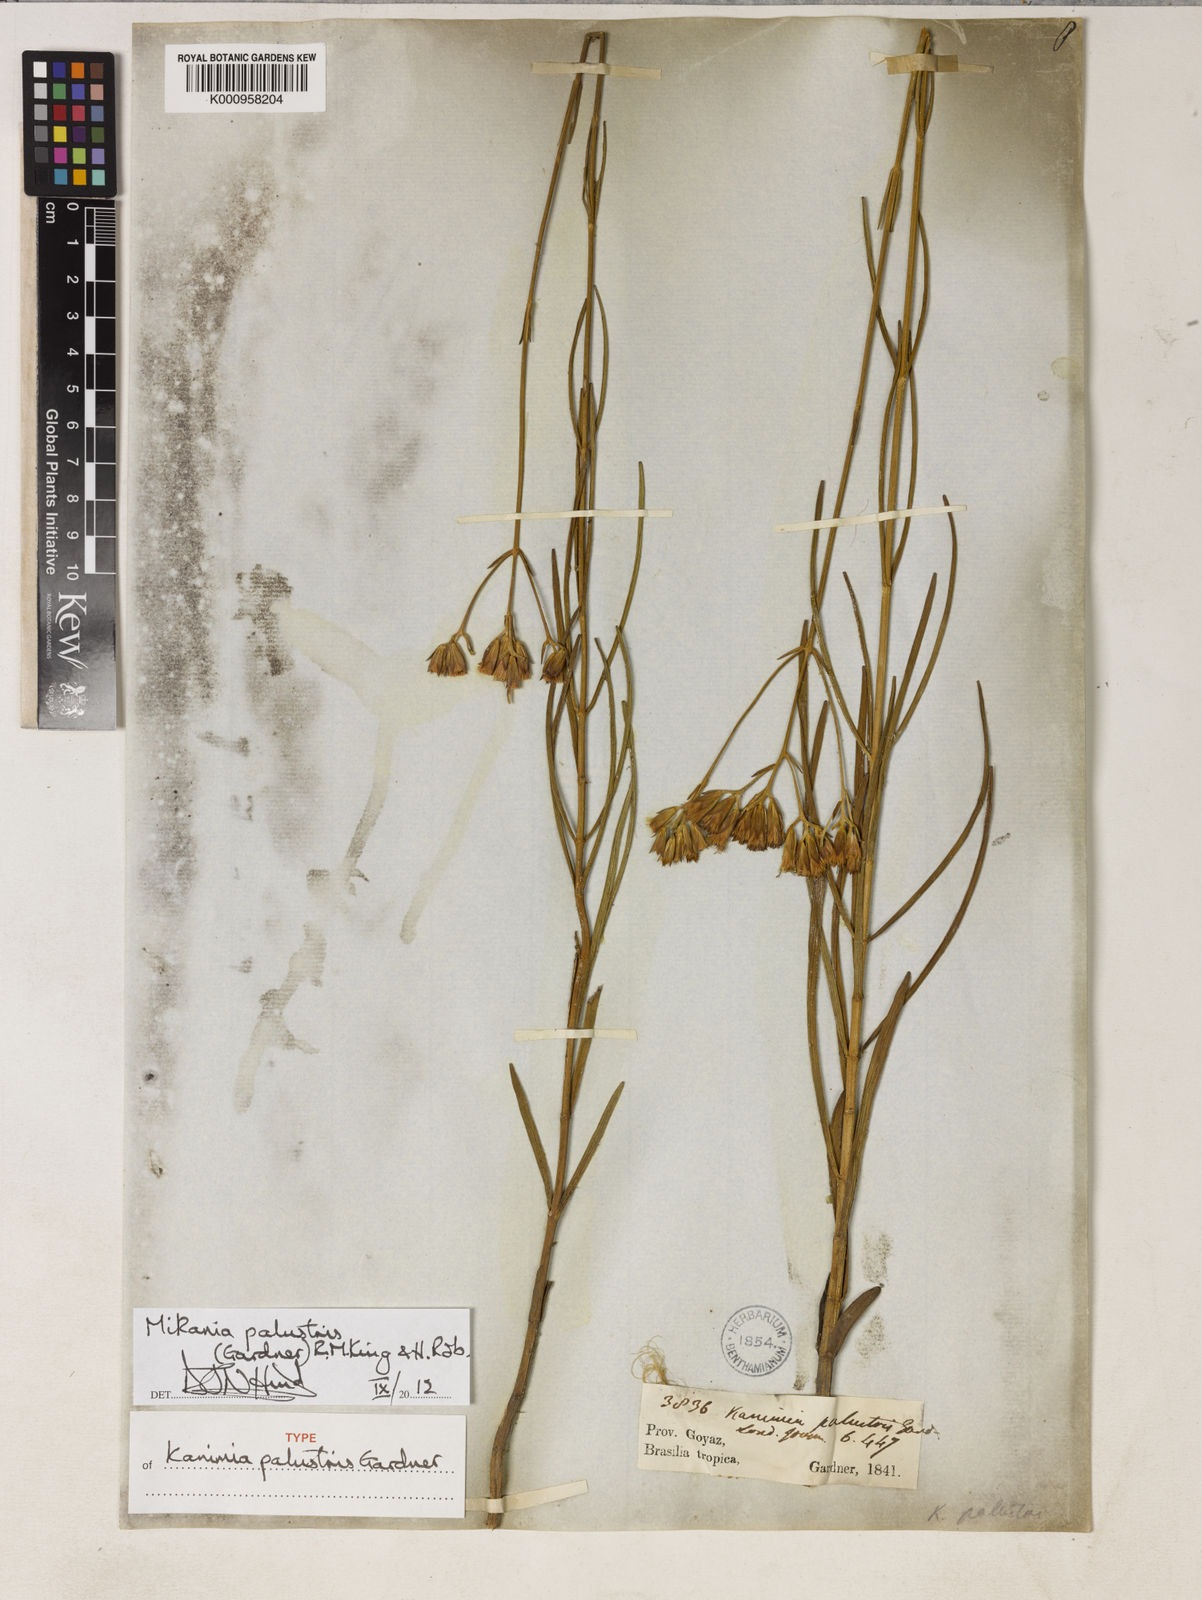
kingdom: Plantae
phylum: Tracheophyta
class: Magnoliopsida
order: Asterales
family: Asteraceae
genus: Mikania
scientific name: Mikania palustris
